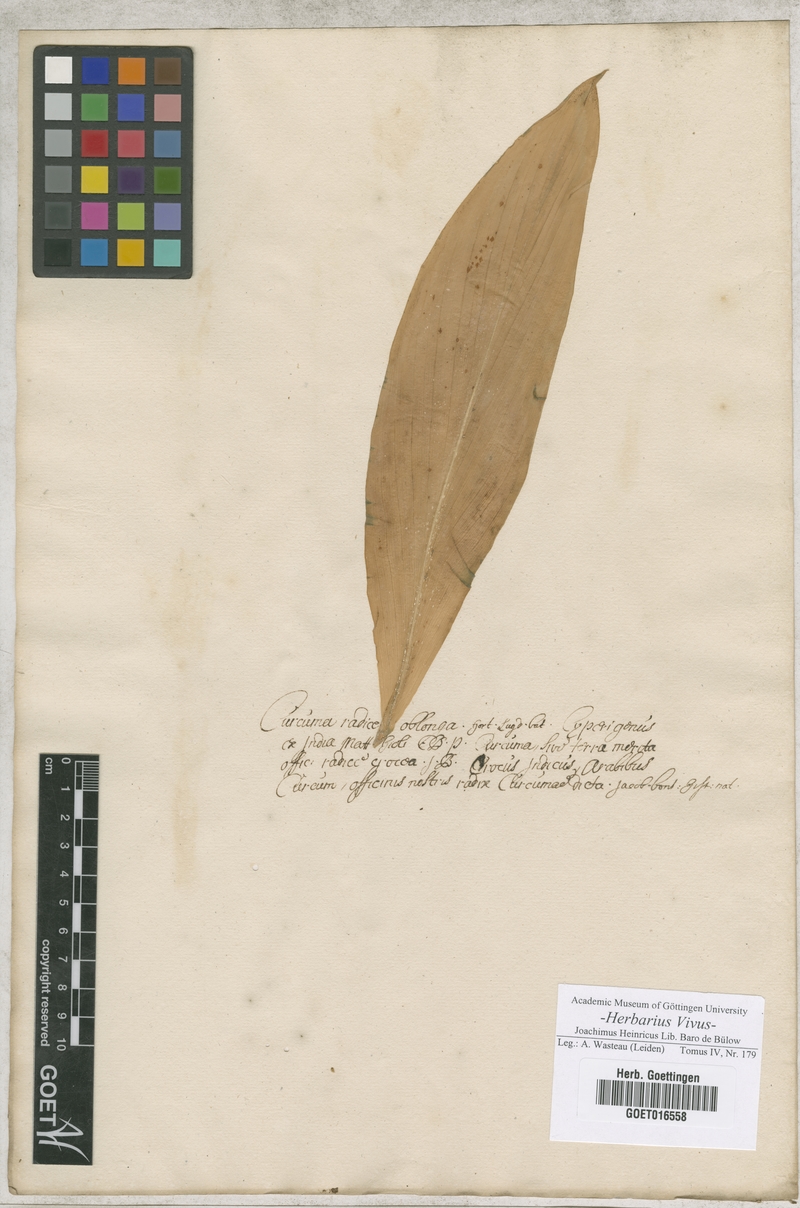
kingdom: Plantae
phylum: Tracheophyta
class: Liliopsida
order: Zingiberales
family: Zingiberaceae
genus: Curcuma
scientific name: Curcuma longa
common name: Turmeric
